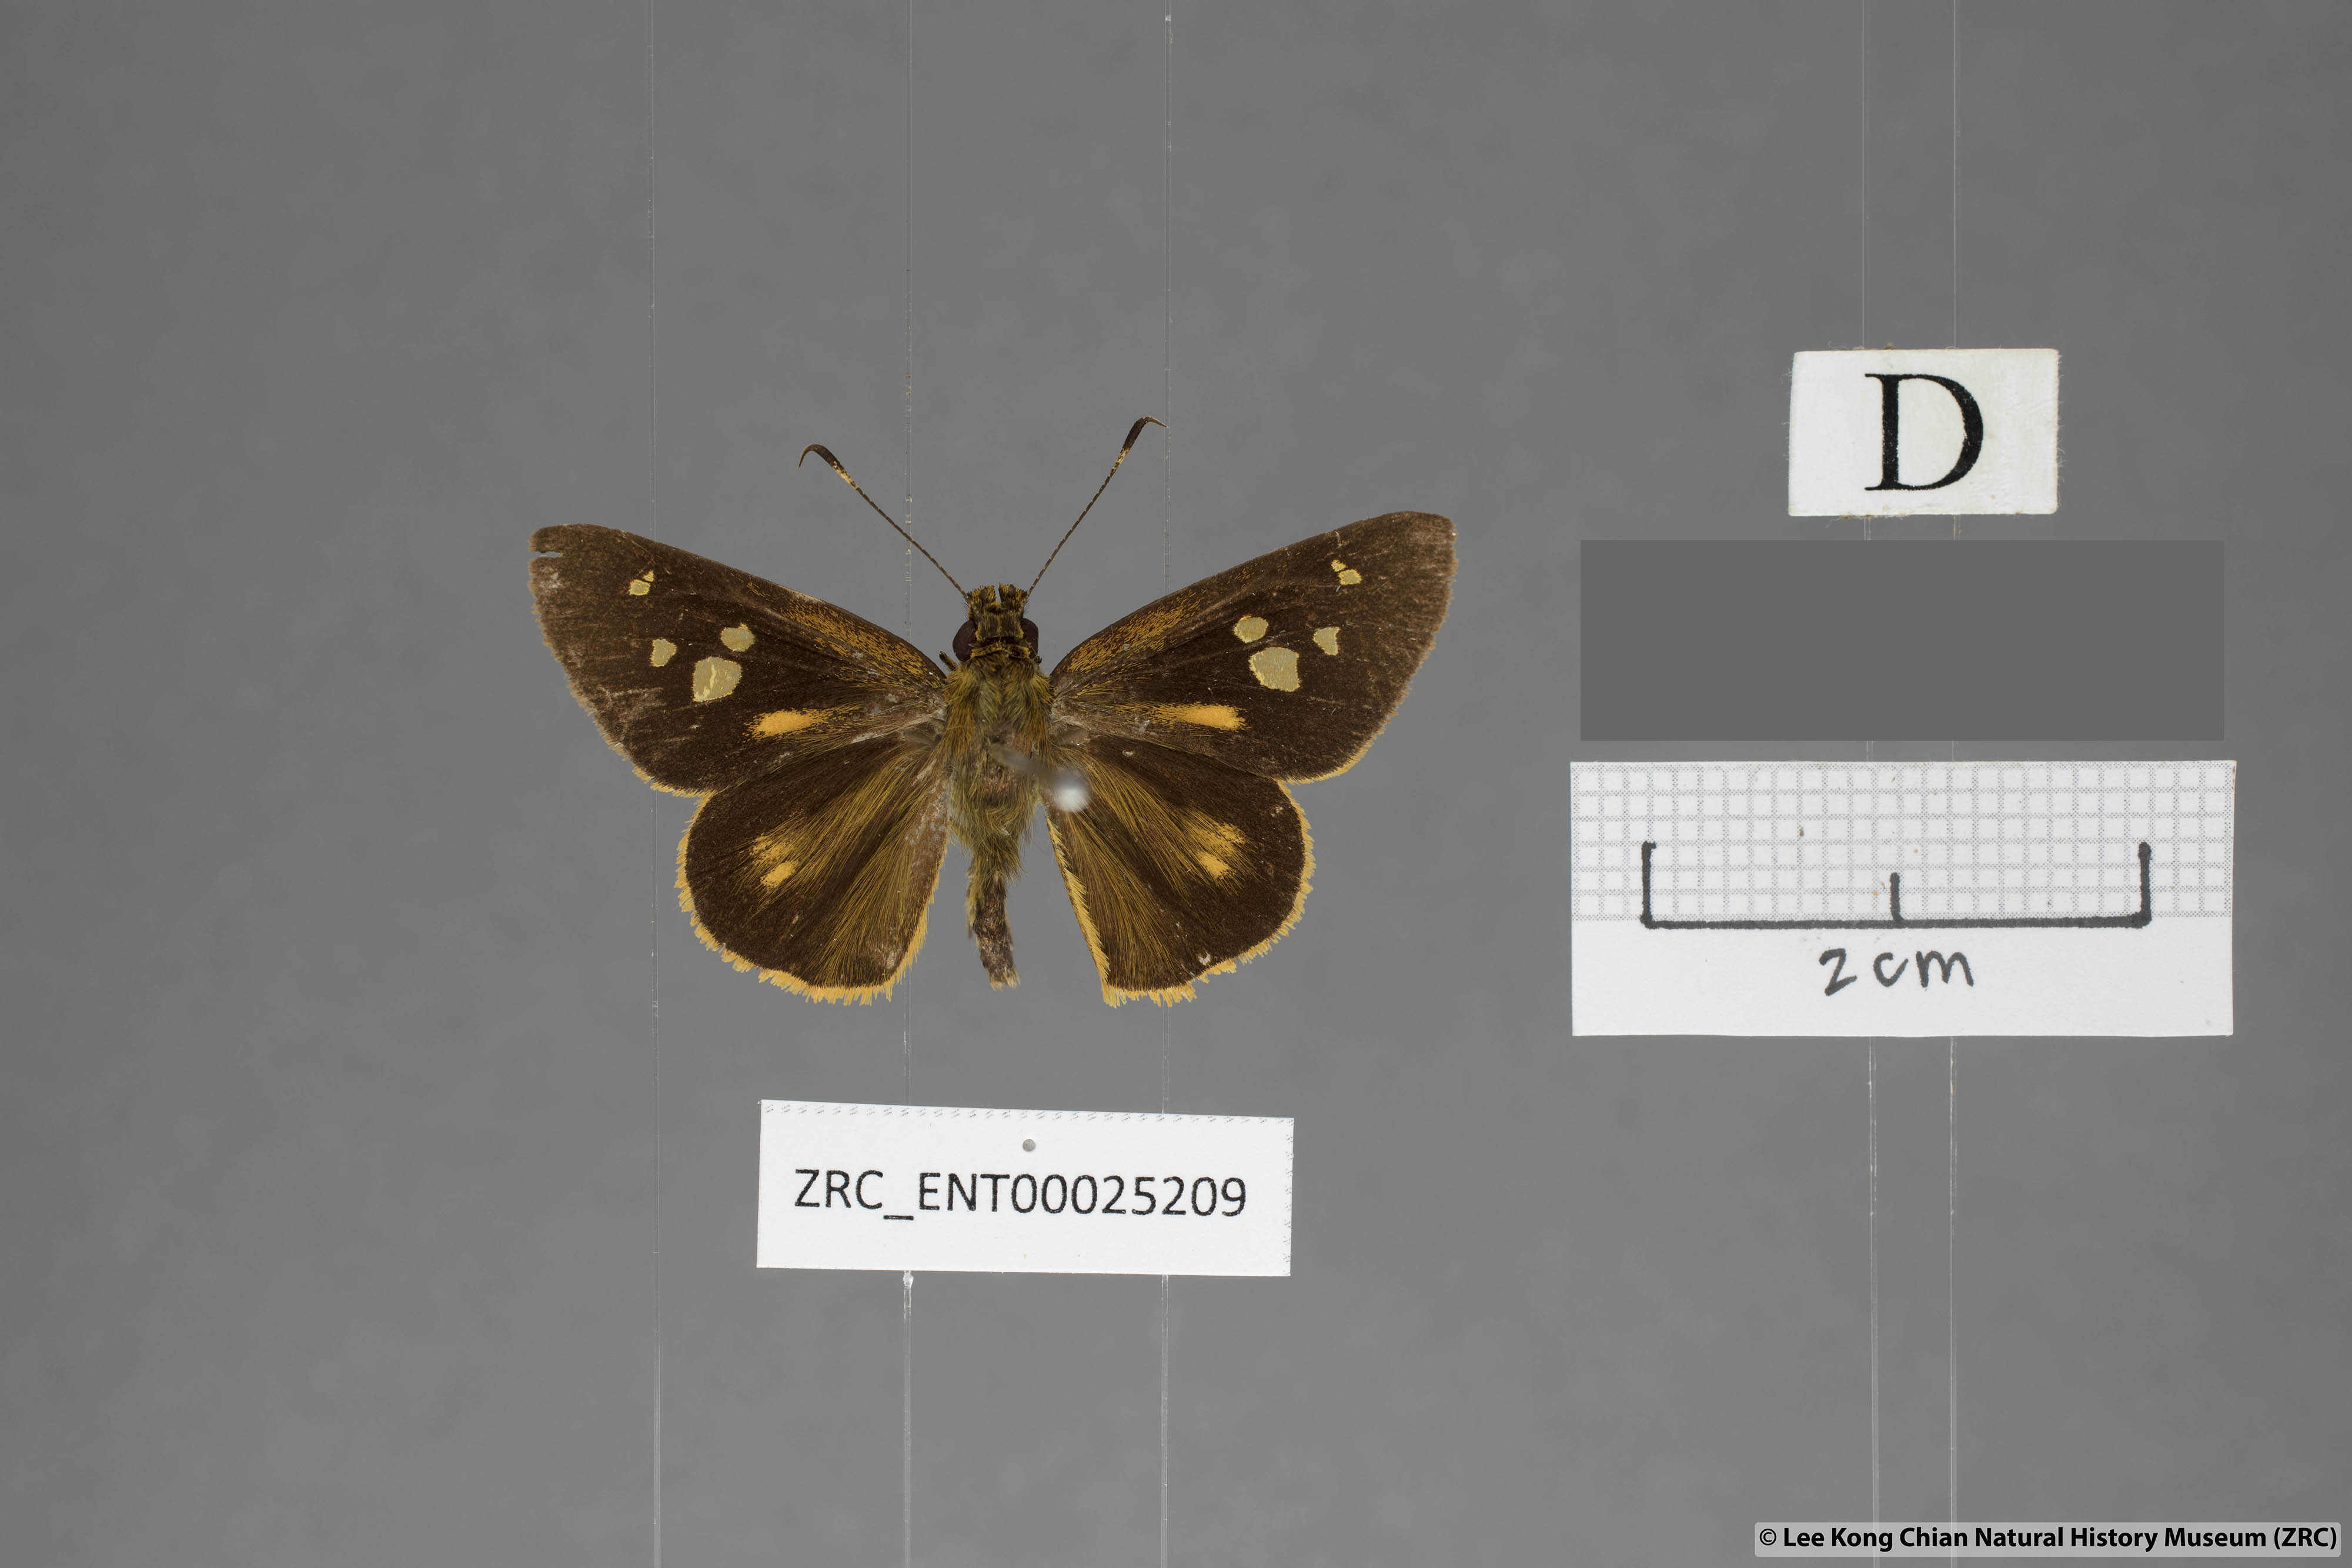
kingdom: Animalia
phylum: Arthropoda
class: Insecta
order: Lepidoptera
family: Hesperiidae
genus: Xanthoneura
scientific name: Xanthoneura corissa
